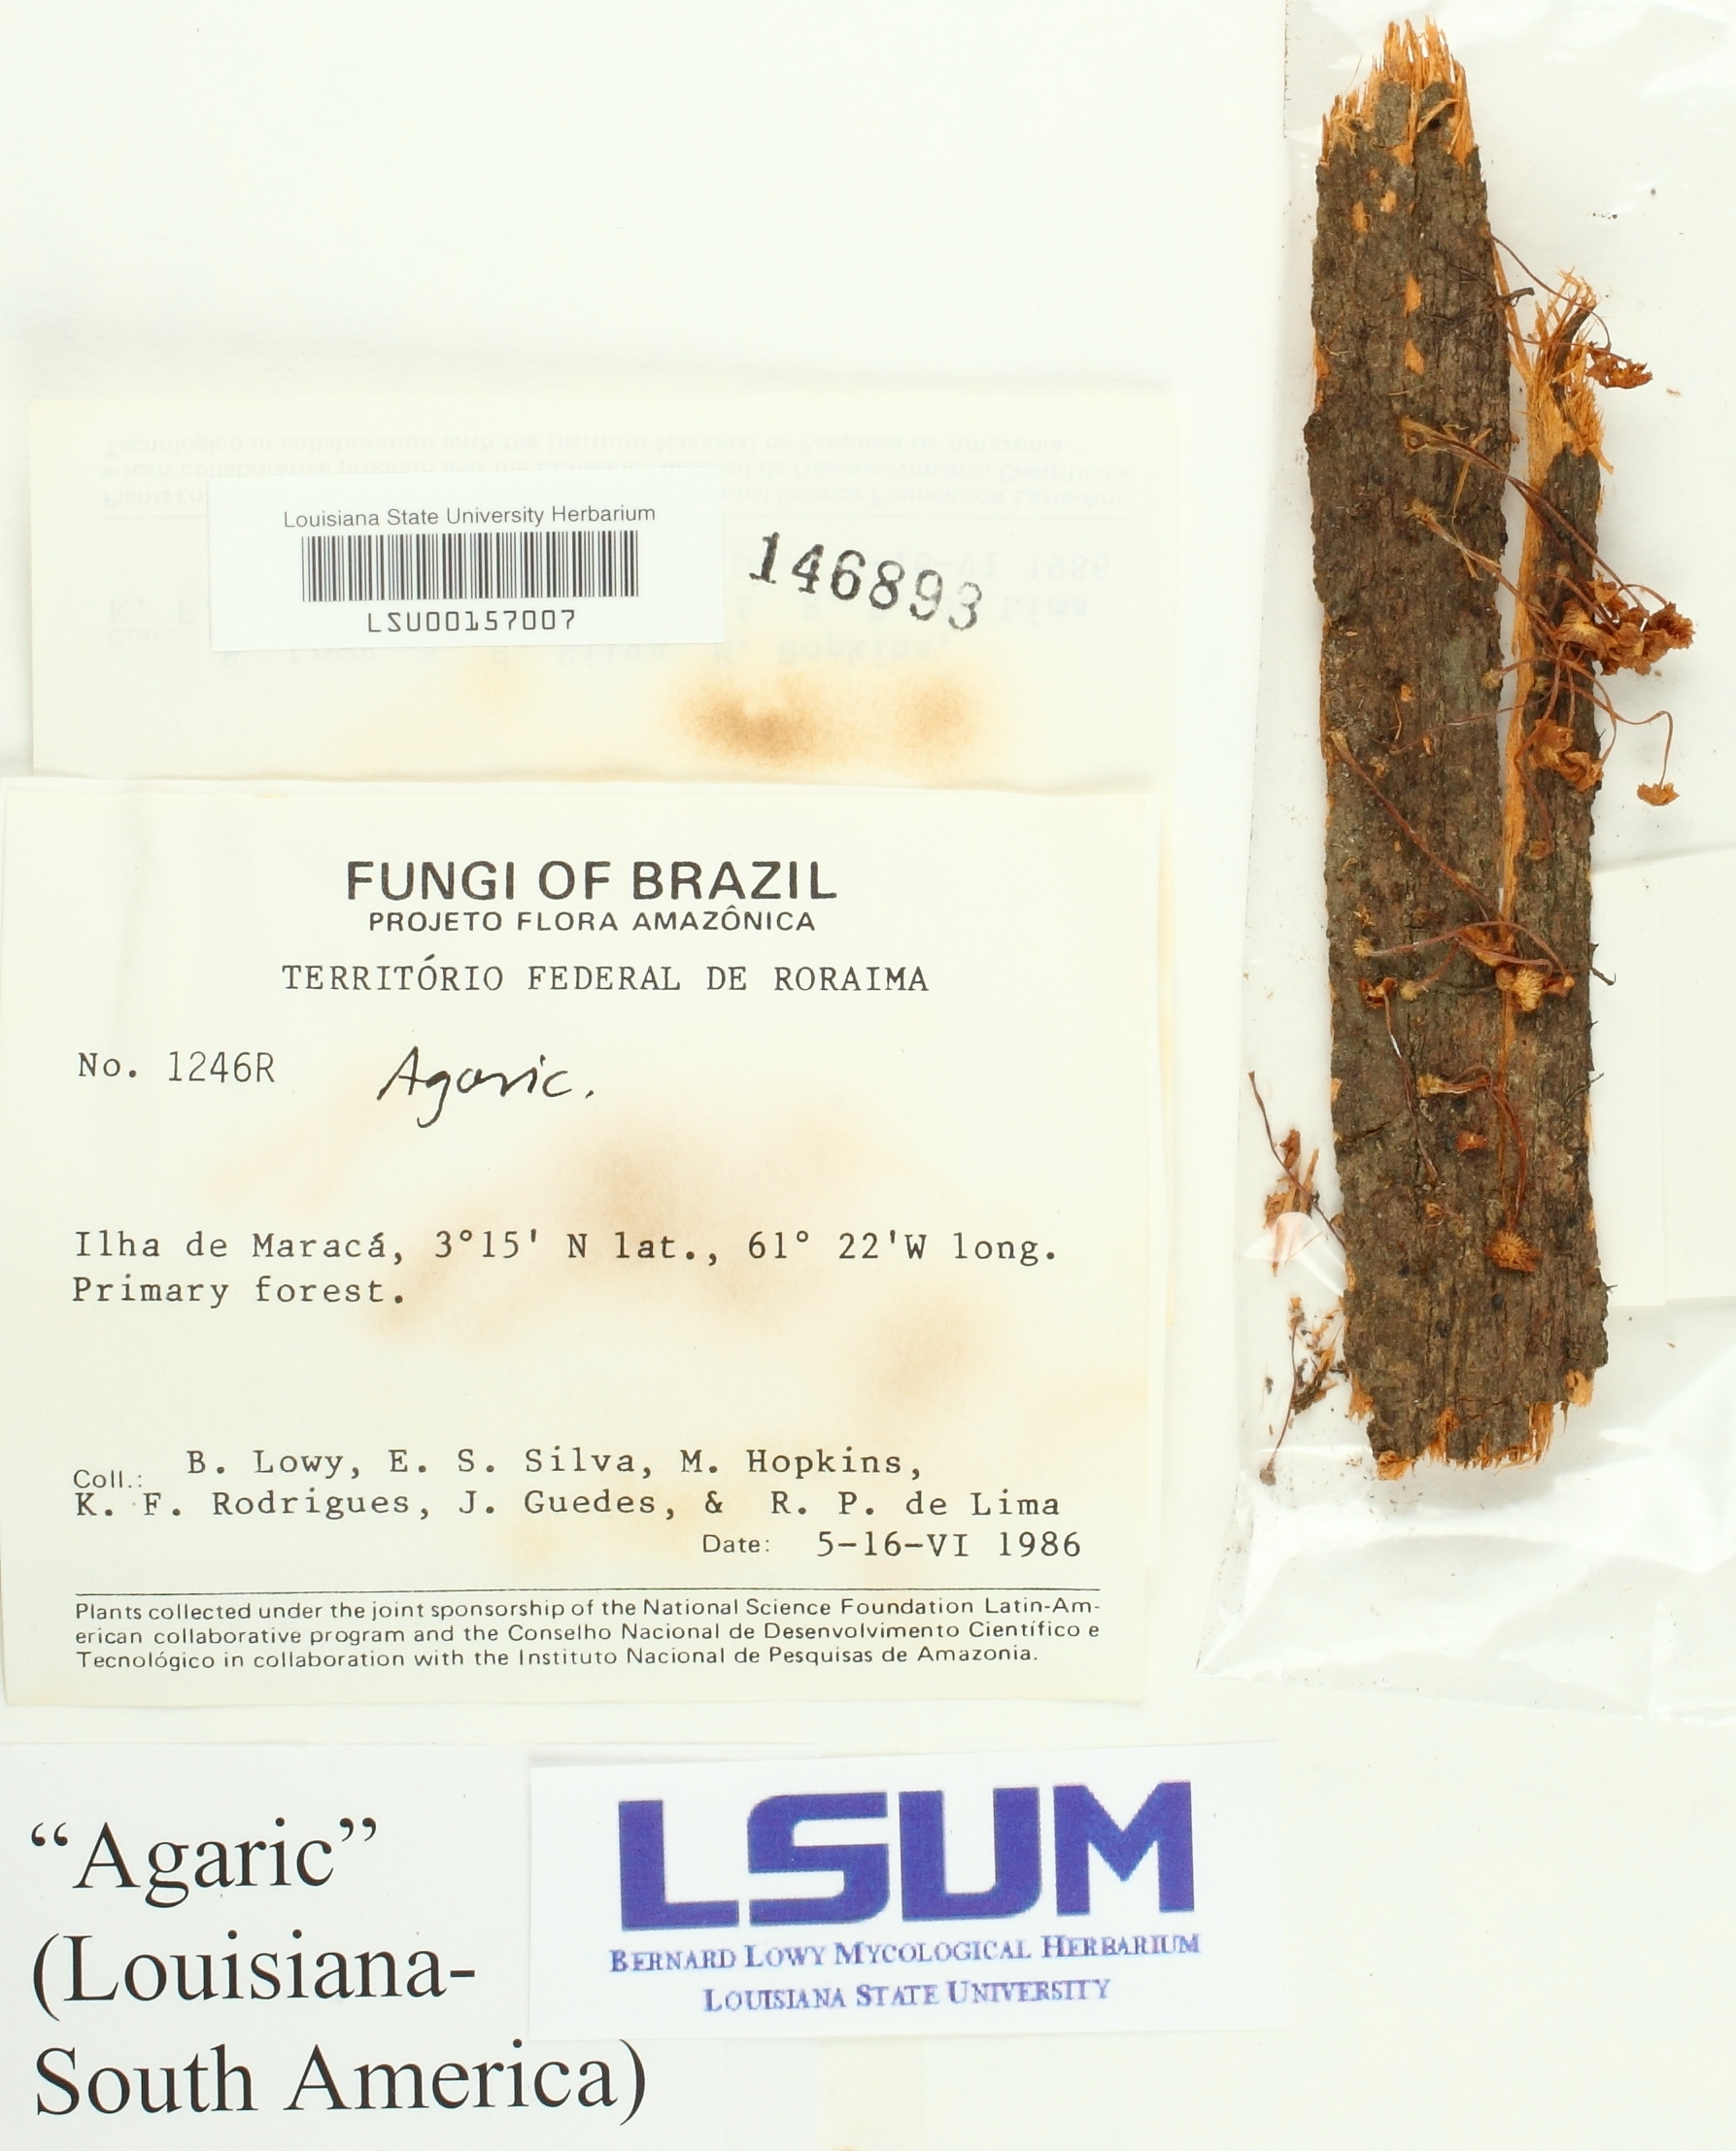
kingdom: Fungi
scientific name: Fungi
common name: Fungi
